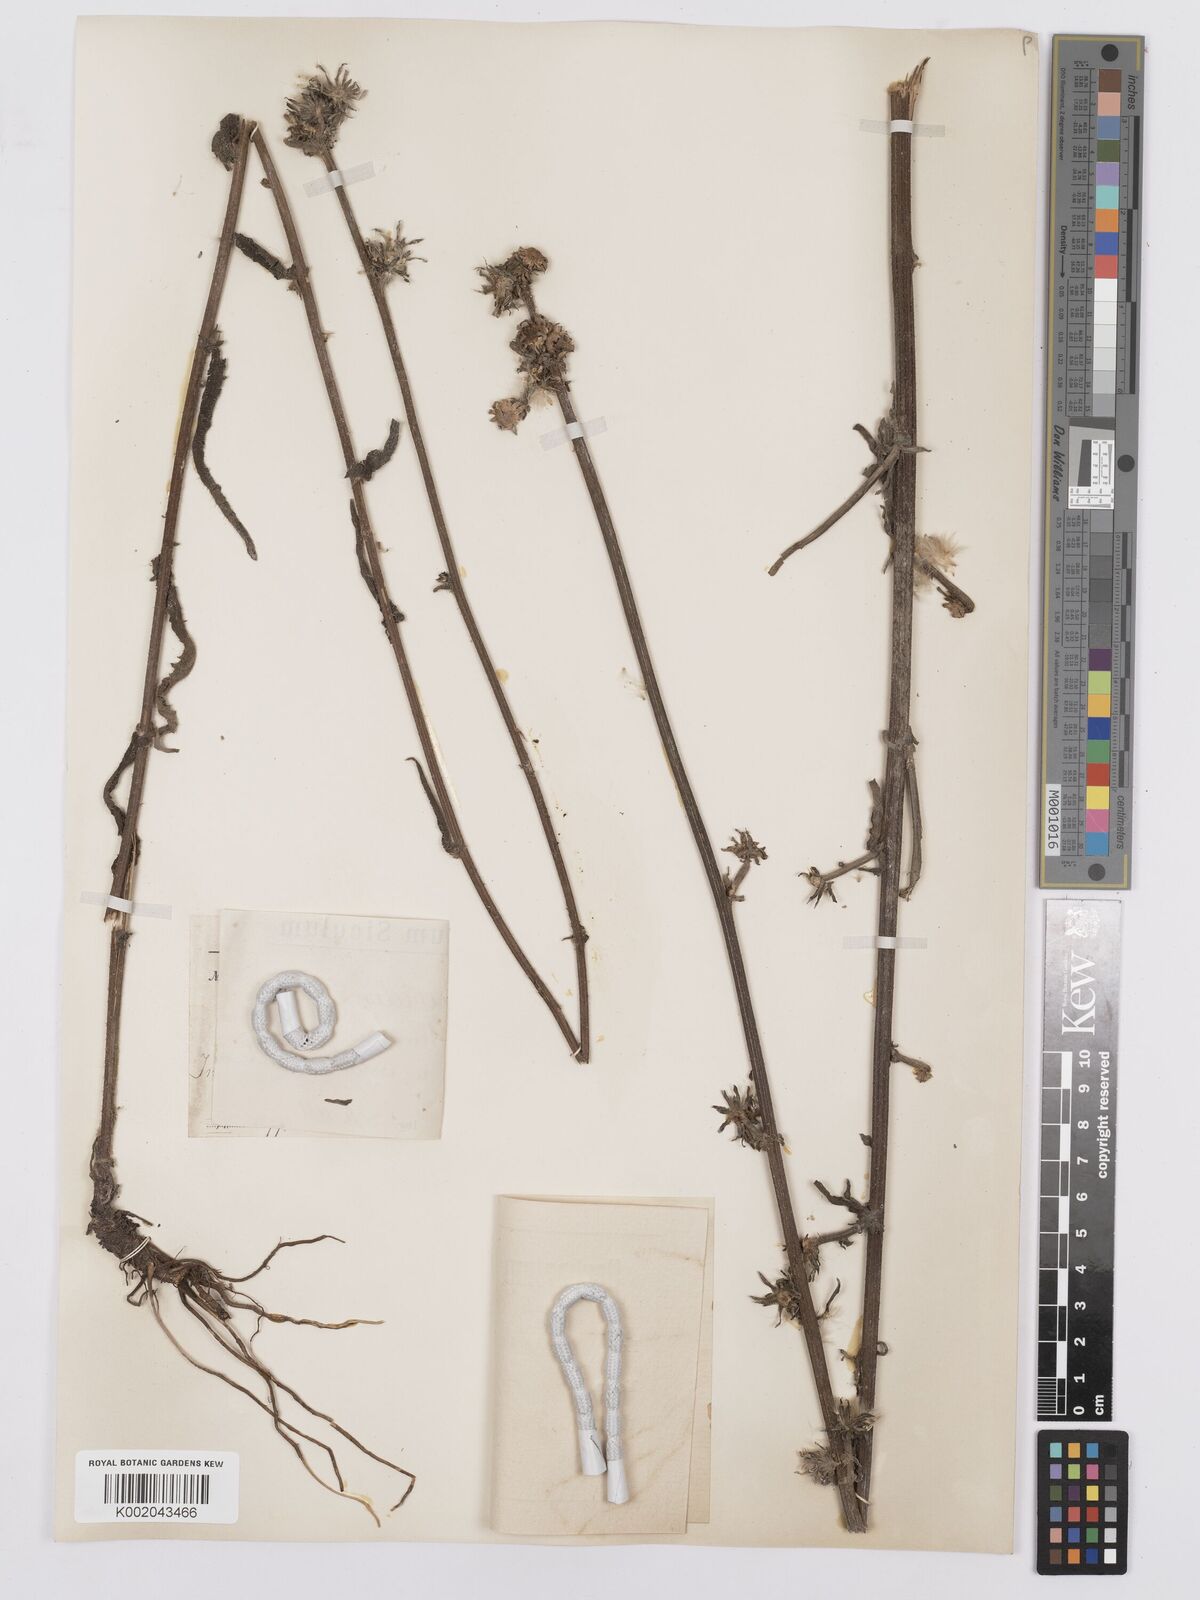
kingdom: Plantae
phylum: Tracheophyta
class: Magnoliopsida
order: Asterales
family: Asteraceae
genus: Picris
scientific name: Picris hieracioides
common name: Hawkweed oxtongue
